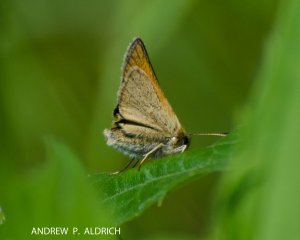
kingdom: Animalia
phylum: Arthropoda
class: Insecta
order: Lepidoptera
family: Hesperiidae
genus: Thymelicus
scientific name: Thymelicus lineola
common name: European Skipper
